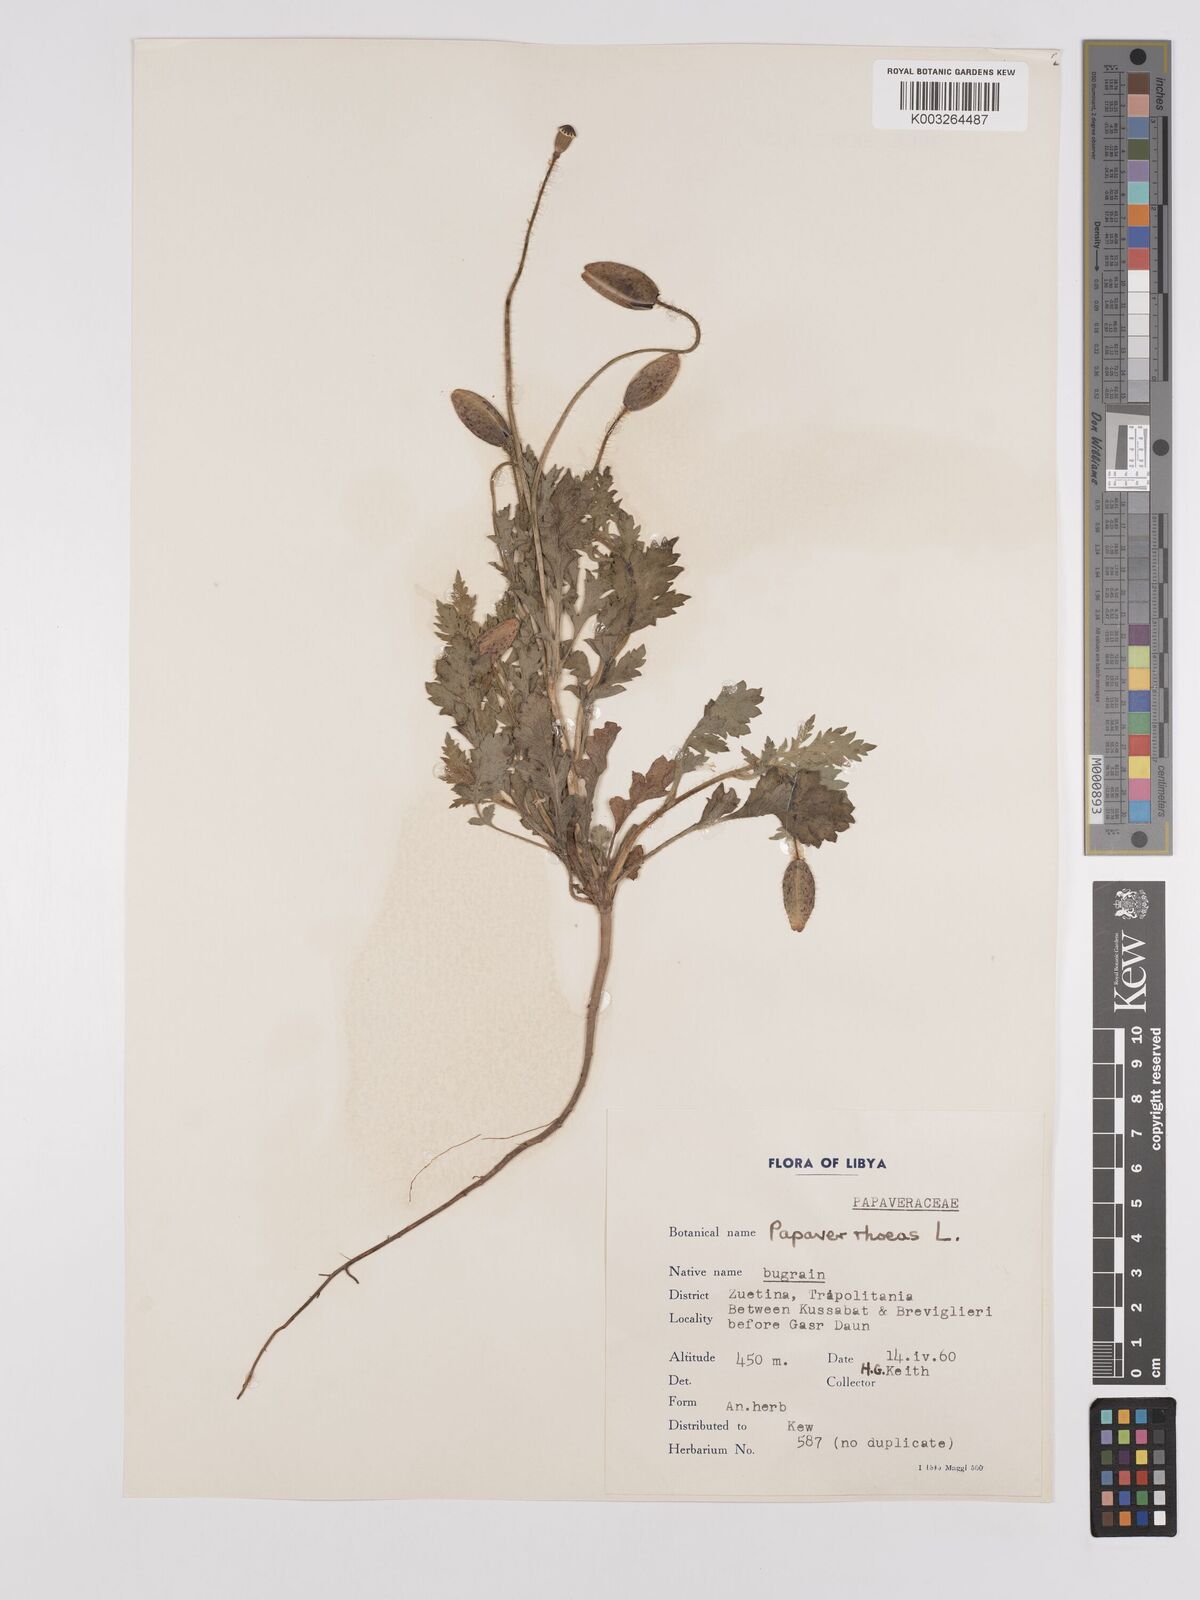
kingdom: Plantae
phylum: Tracheophyta
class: Magnoliopsida
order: Ranunculales
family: Papaveraceae
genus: Papaver
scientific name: Papaver rhoeas
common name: Corn poppy
